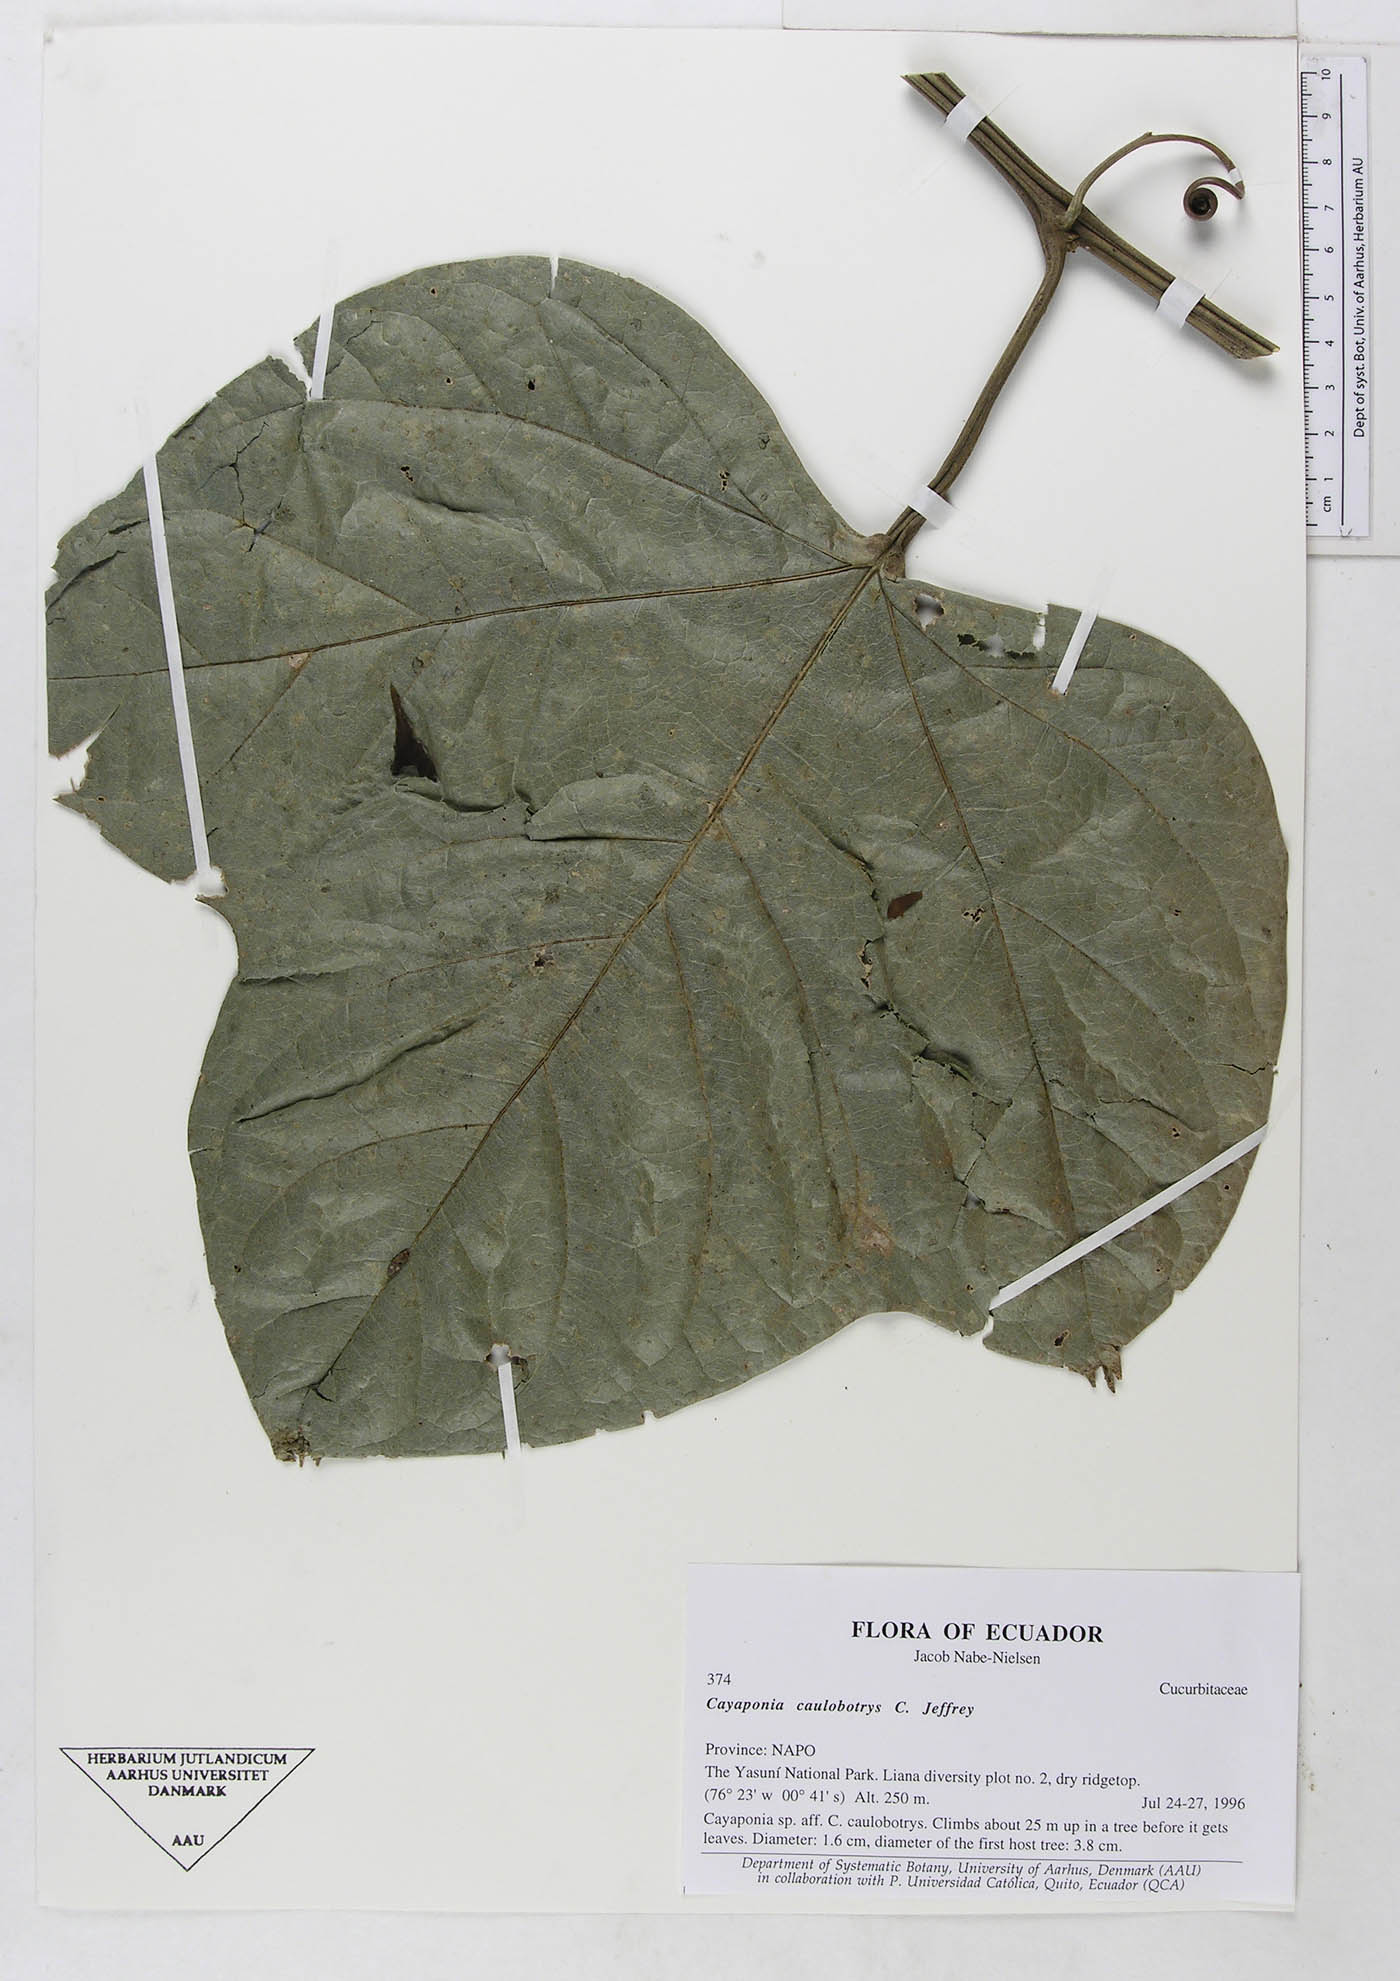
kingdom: Plantae
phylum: Tracheophyta
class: Magnoliopsida
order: Cucurbitales
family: Cucurbitaceae
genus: Cayaponia
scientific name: Cayaponia ophthalmica
